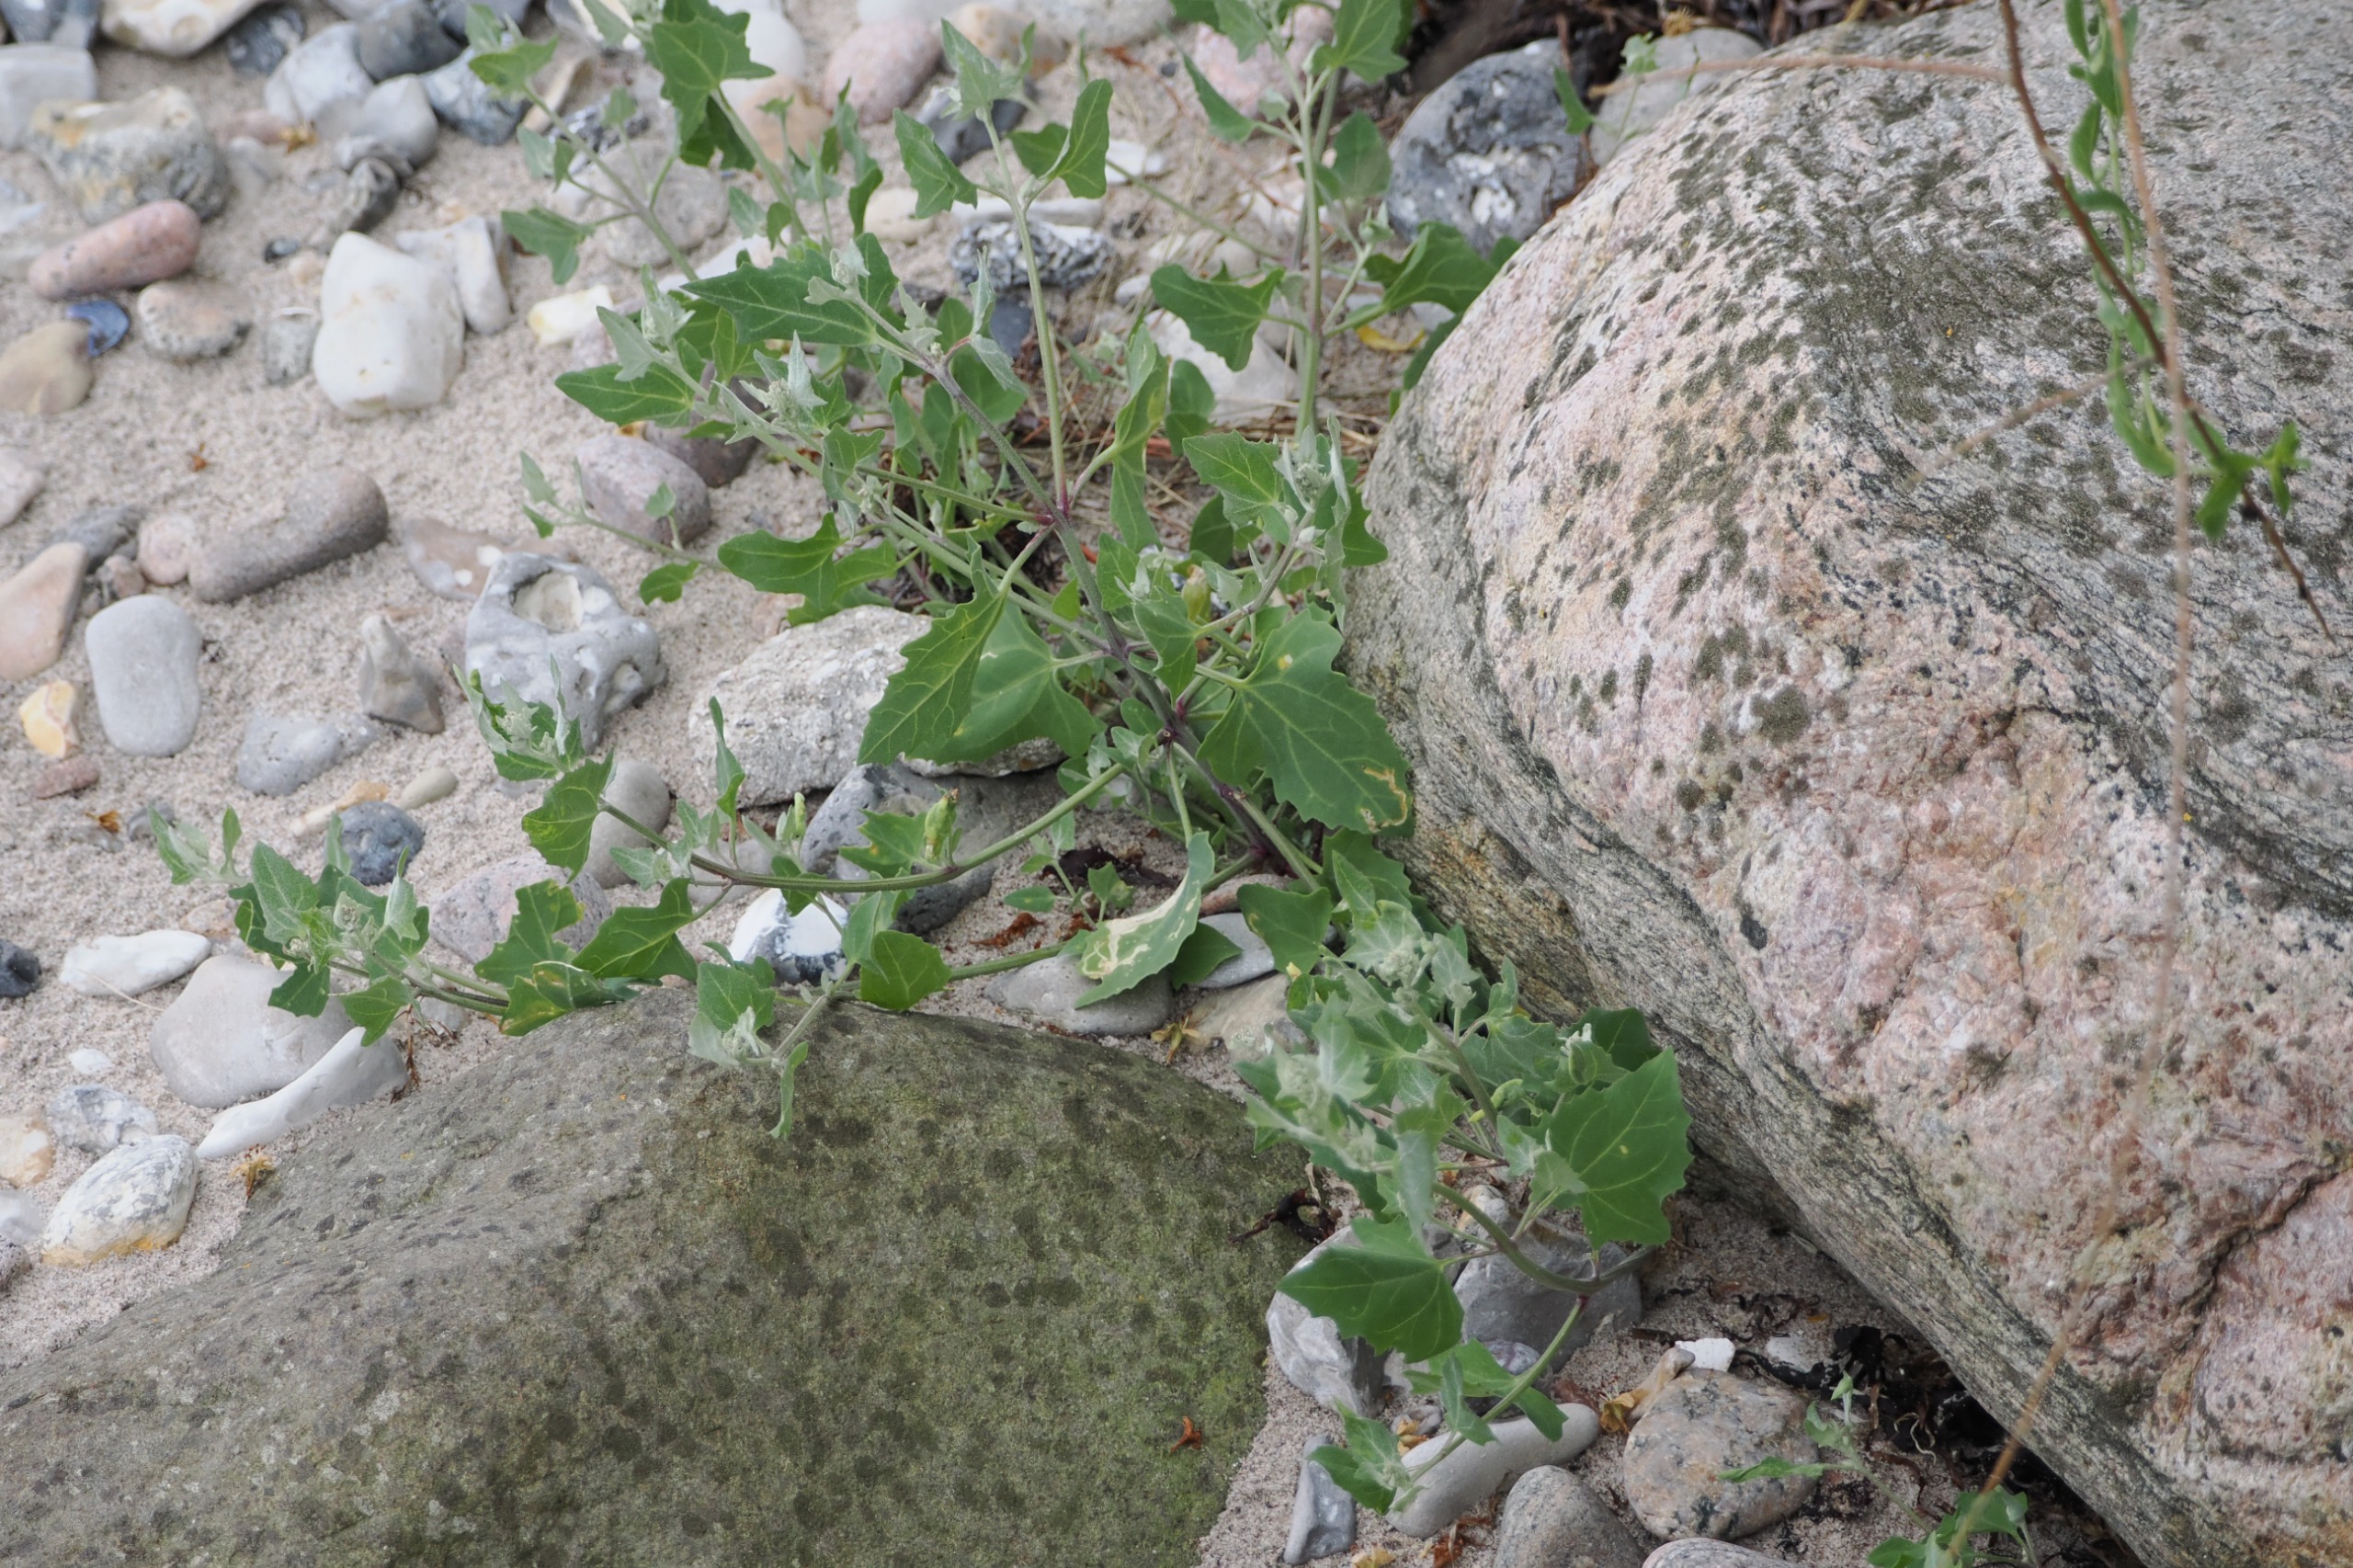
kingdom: Plantae
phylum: Tracheophyta
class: Magnoliopsida
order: Caryophyllales
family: Amaranthaceae
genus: Atriplex
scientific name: Atriplex prostrata
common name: Spyd-mælde
